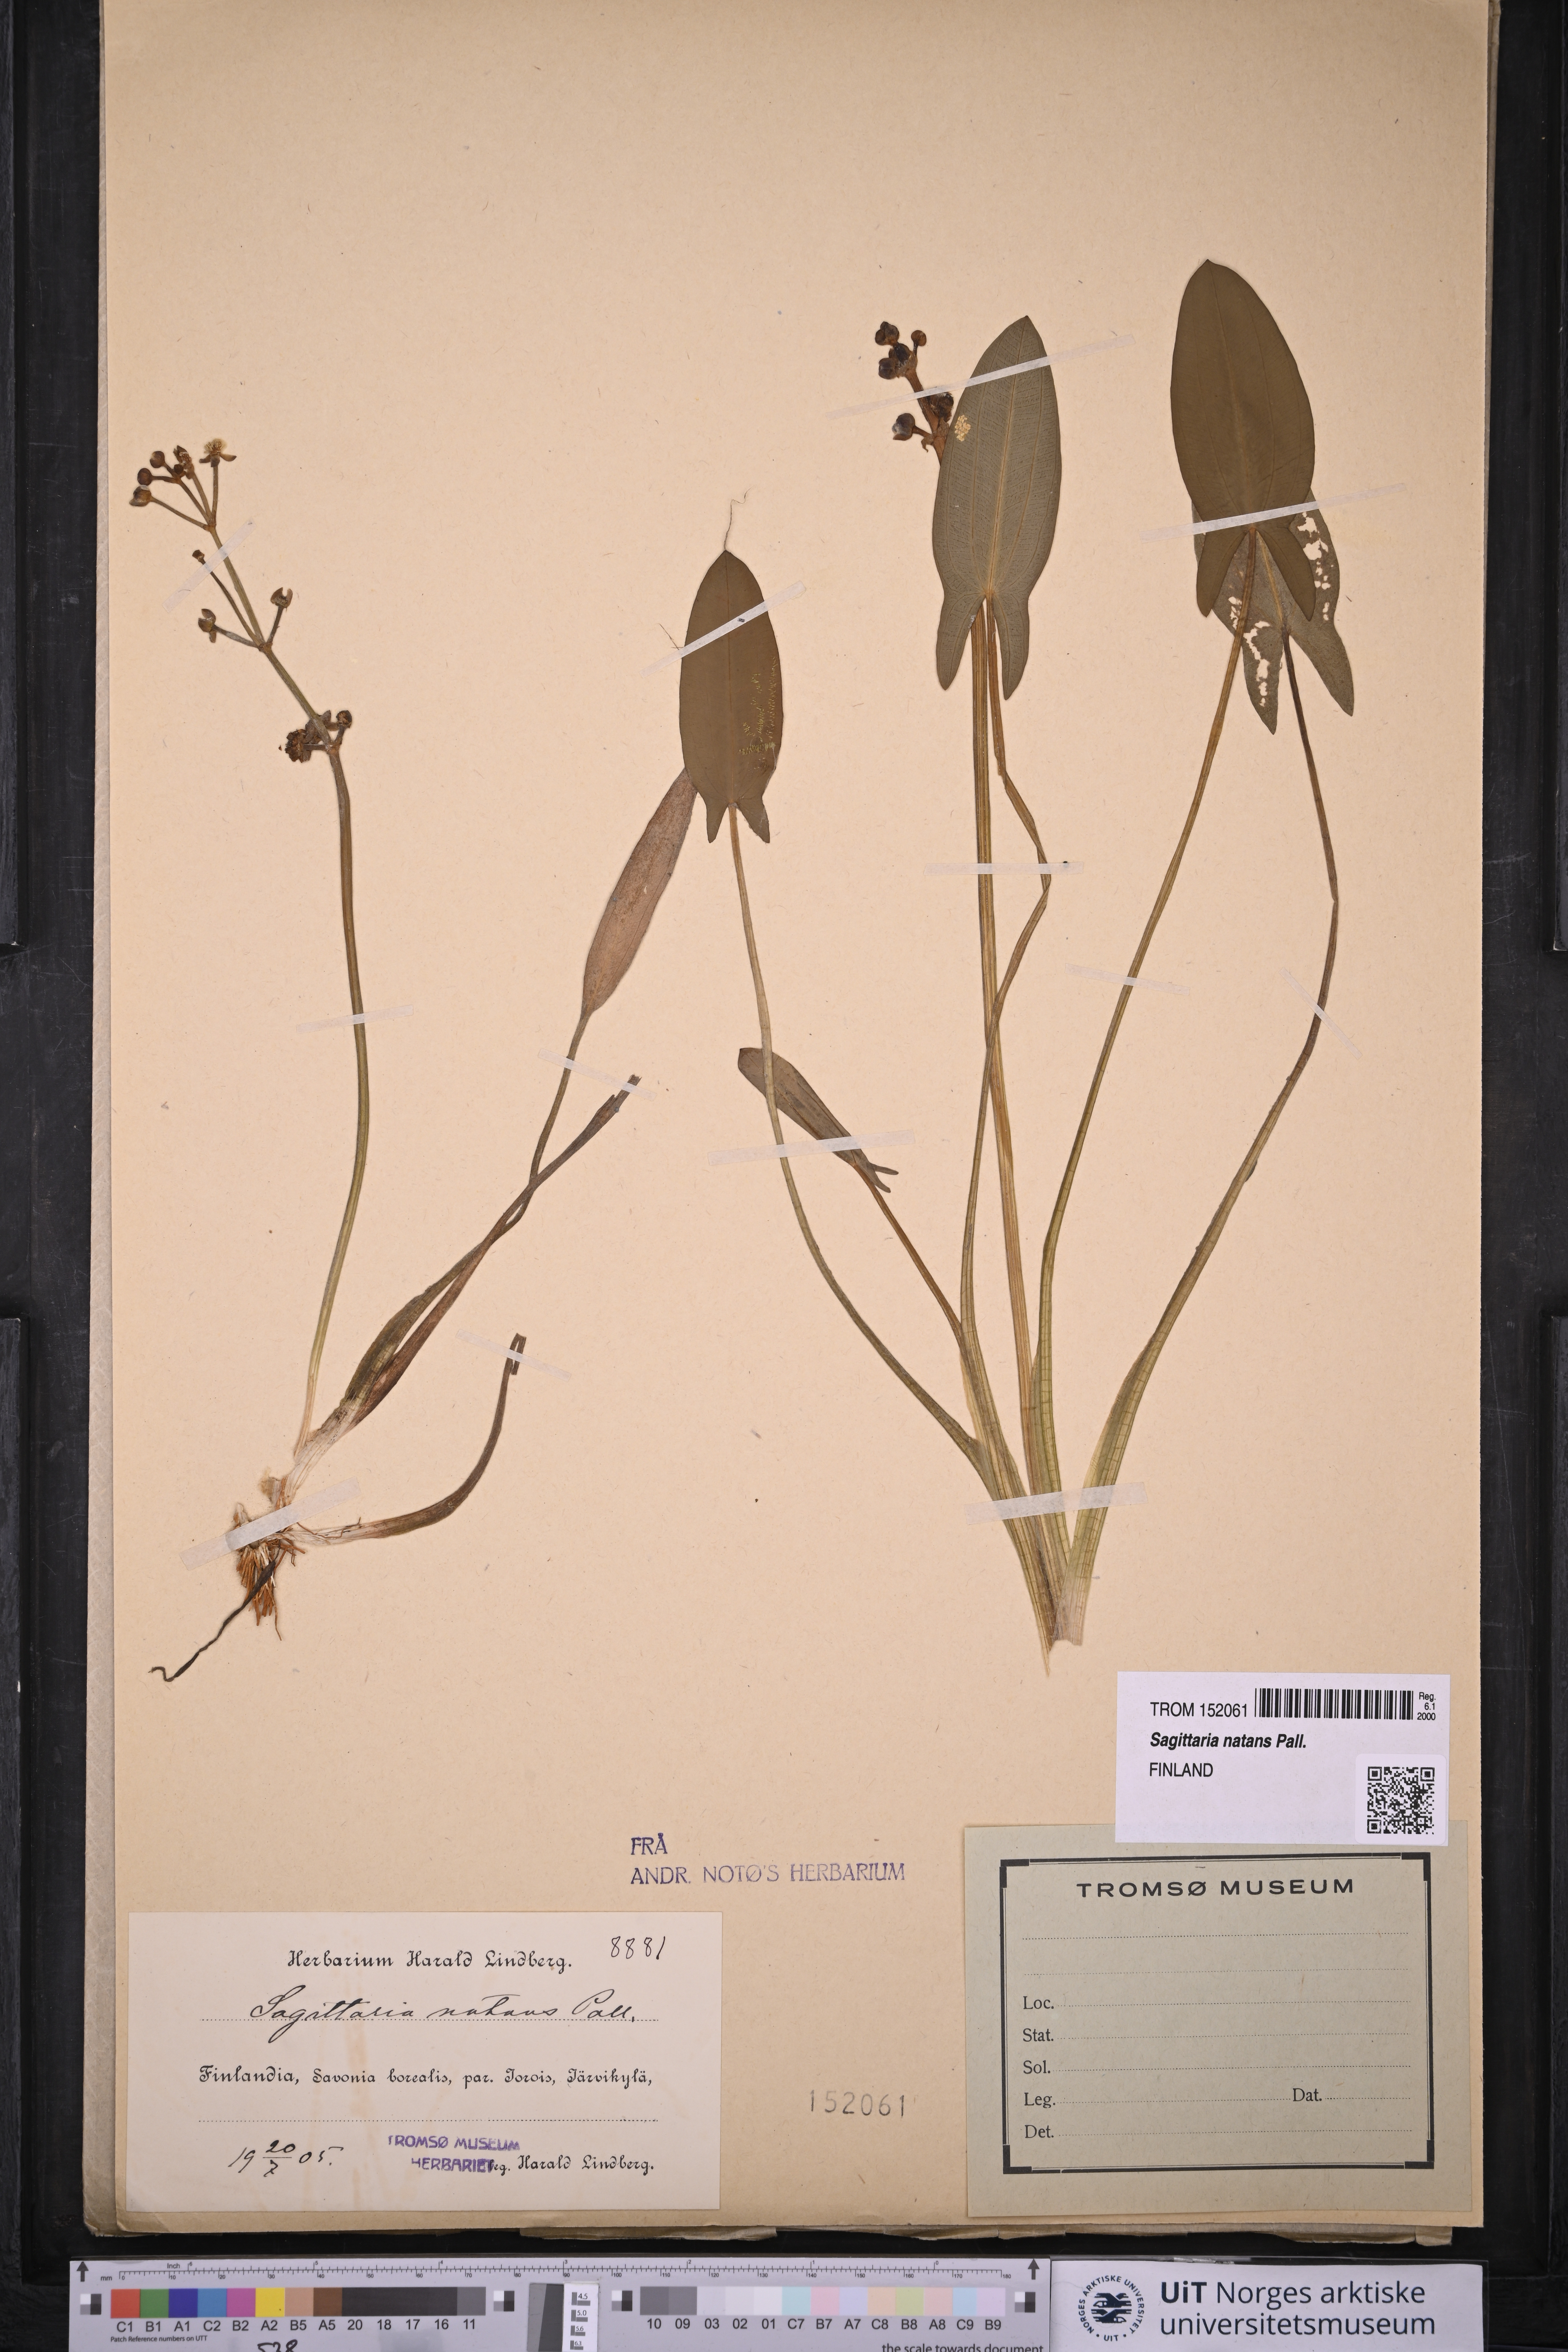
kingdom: Plantae
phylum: Tracheophyta
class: Liliopsida
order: Alismatales
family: Alismataceae
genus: Sagittaria
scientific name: Sagittaria natans
